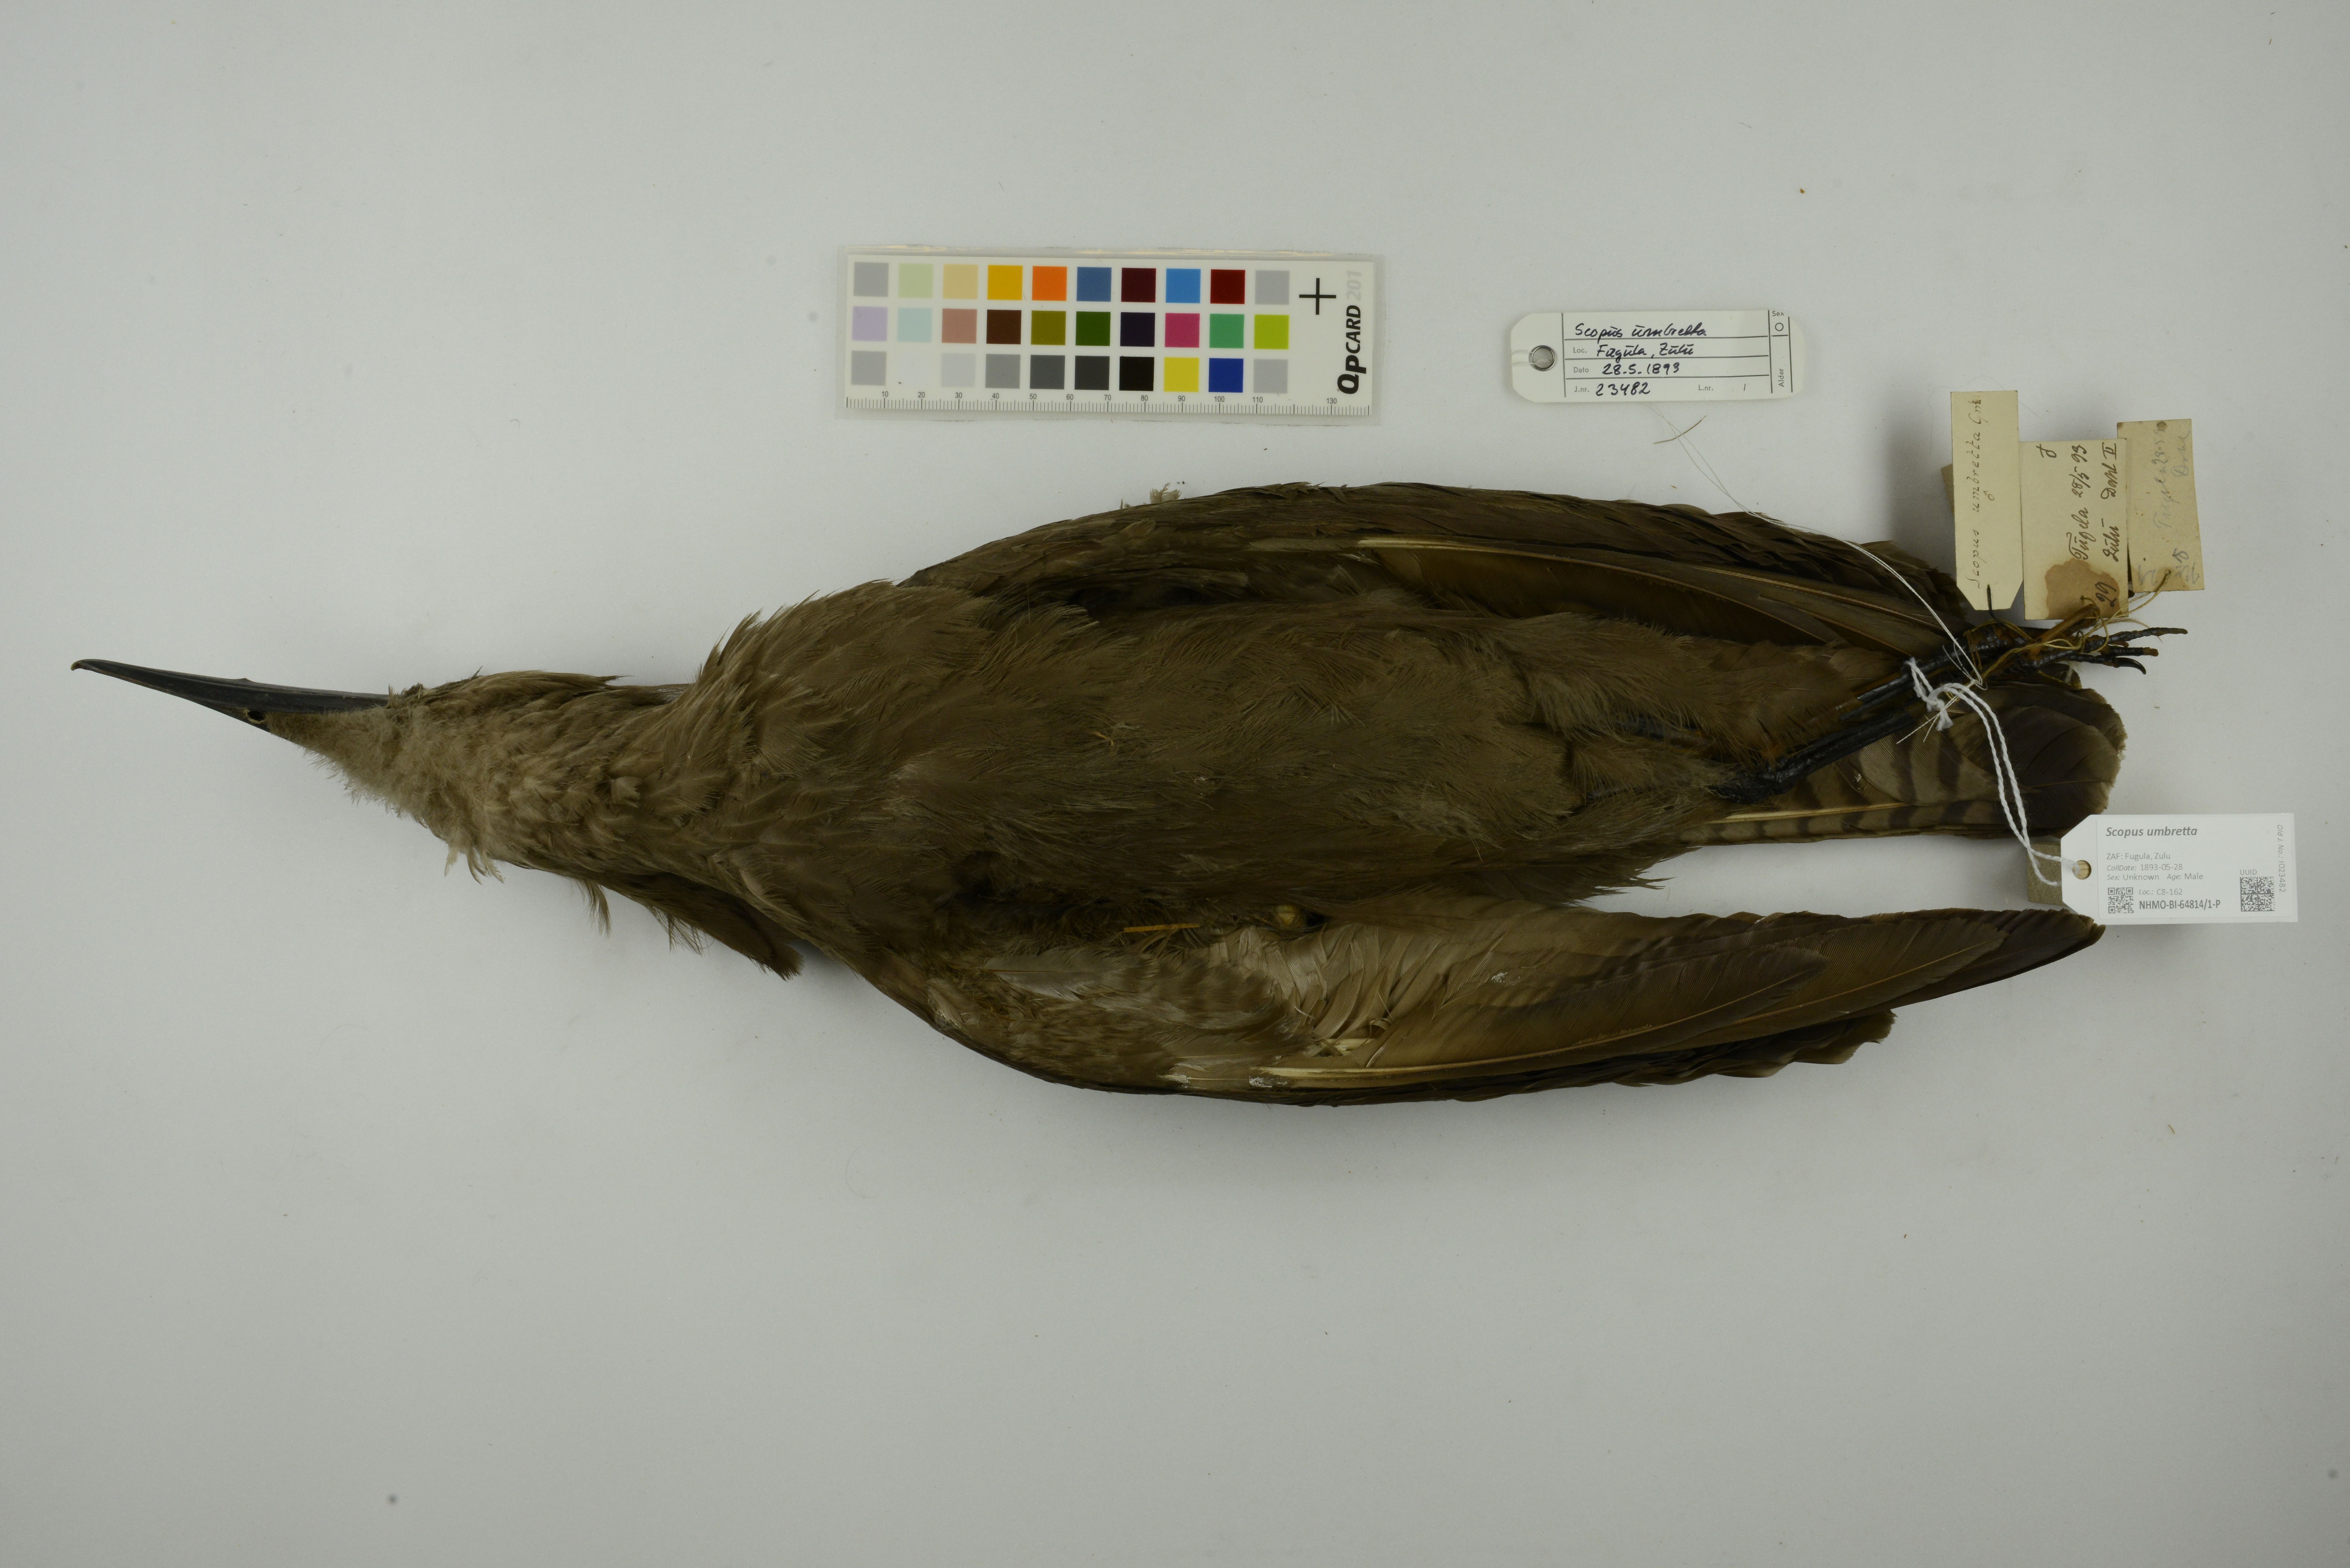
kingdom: Animalia
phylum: Chordata
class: Aves
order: Pelecaniformes
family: Scopidae
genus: Scopus
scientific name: Scopus umbretta
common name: Hamerkop
